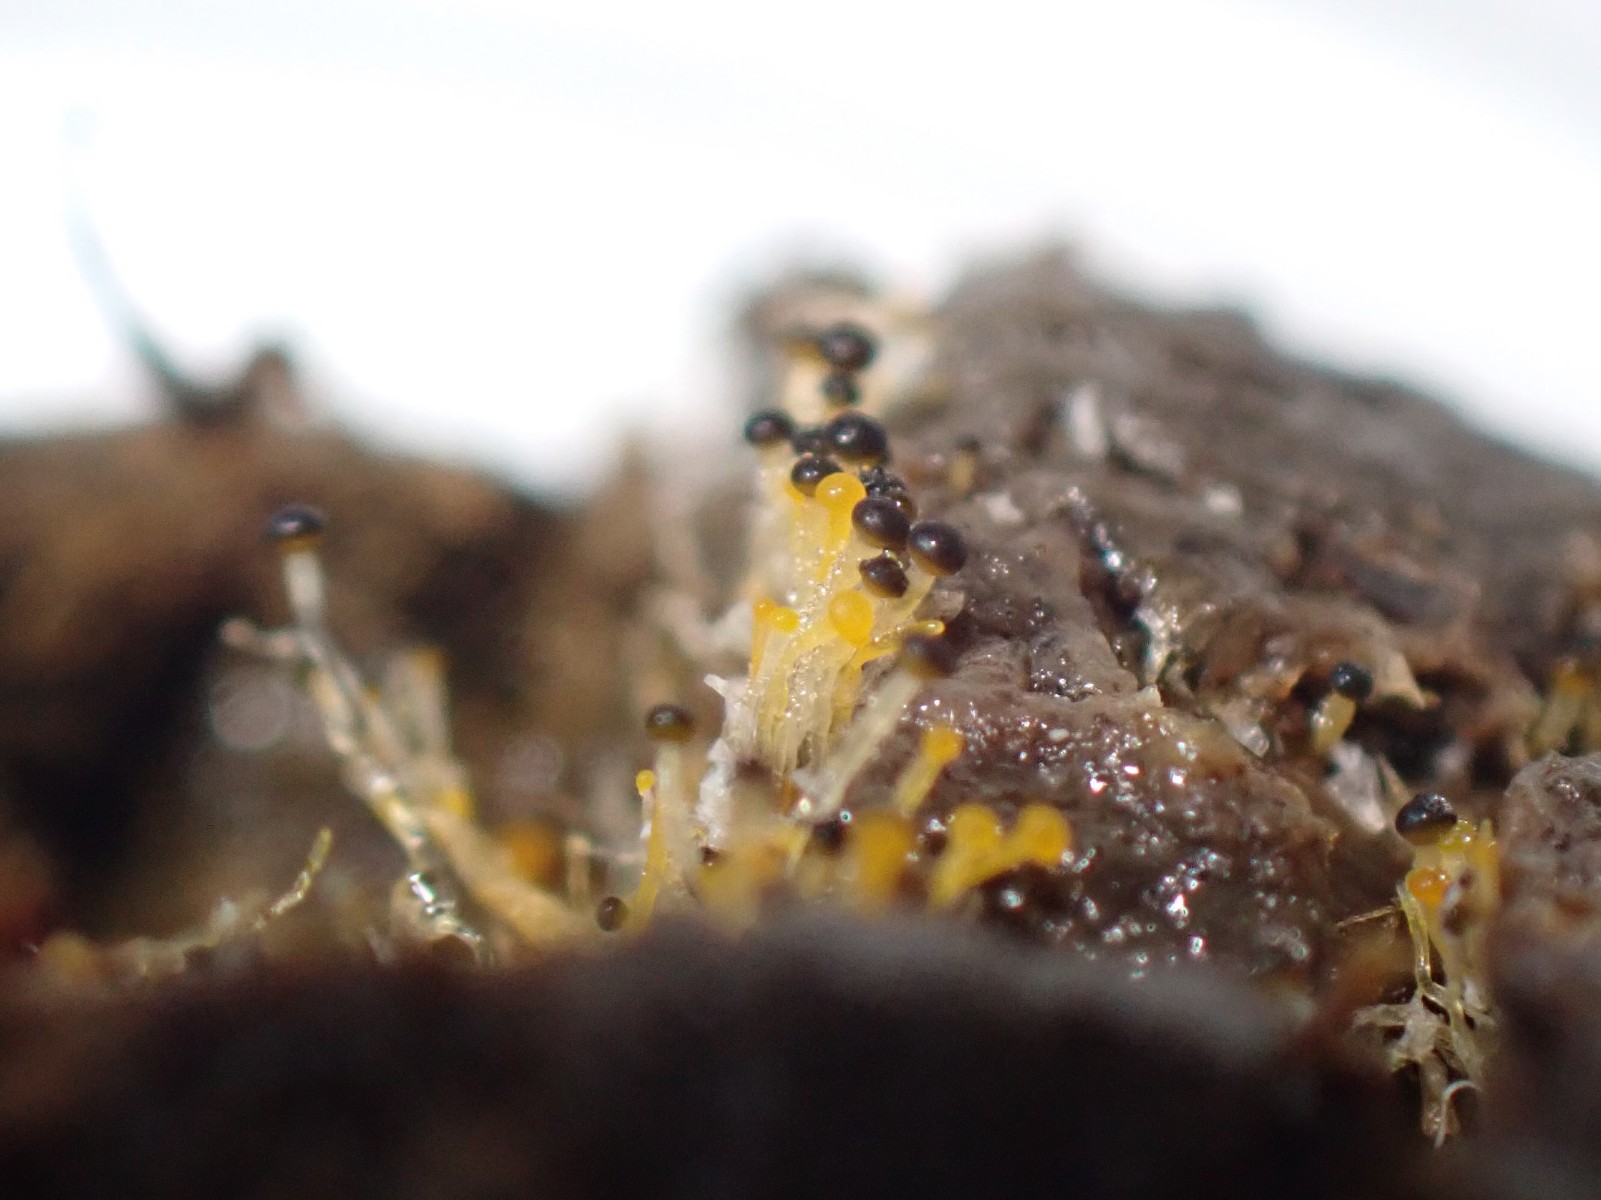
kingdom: Fungi
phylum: Mucoromycota
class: Mucoromycetes
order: Mucorales
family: Pilobolaceae
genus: Pilobolus
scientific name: Pilobolus
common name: boldkaster
